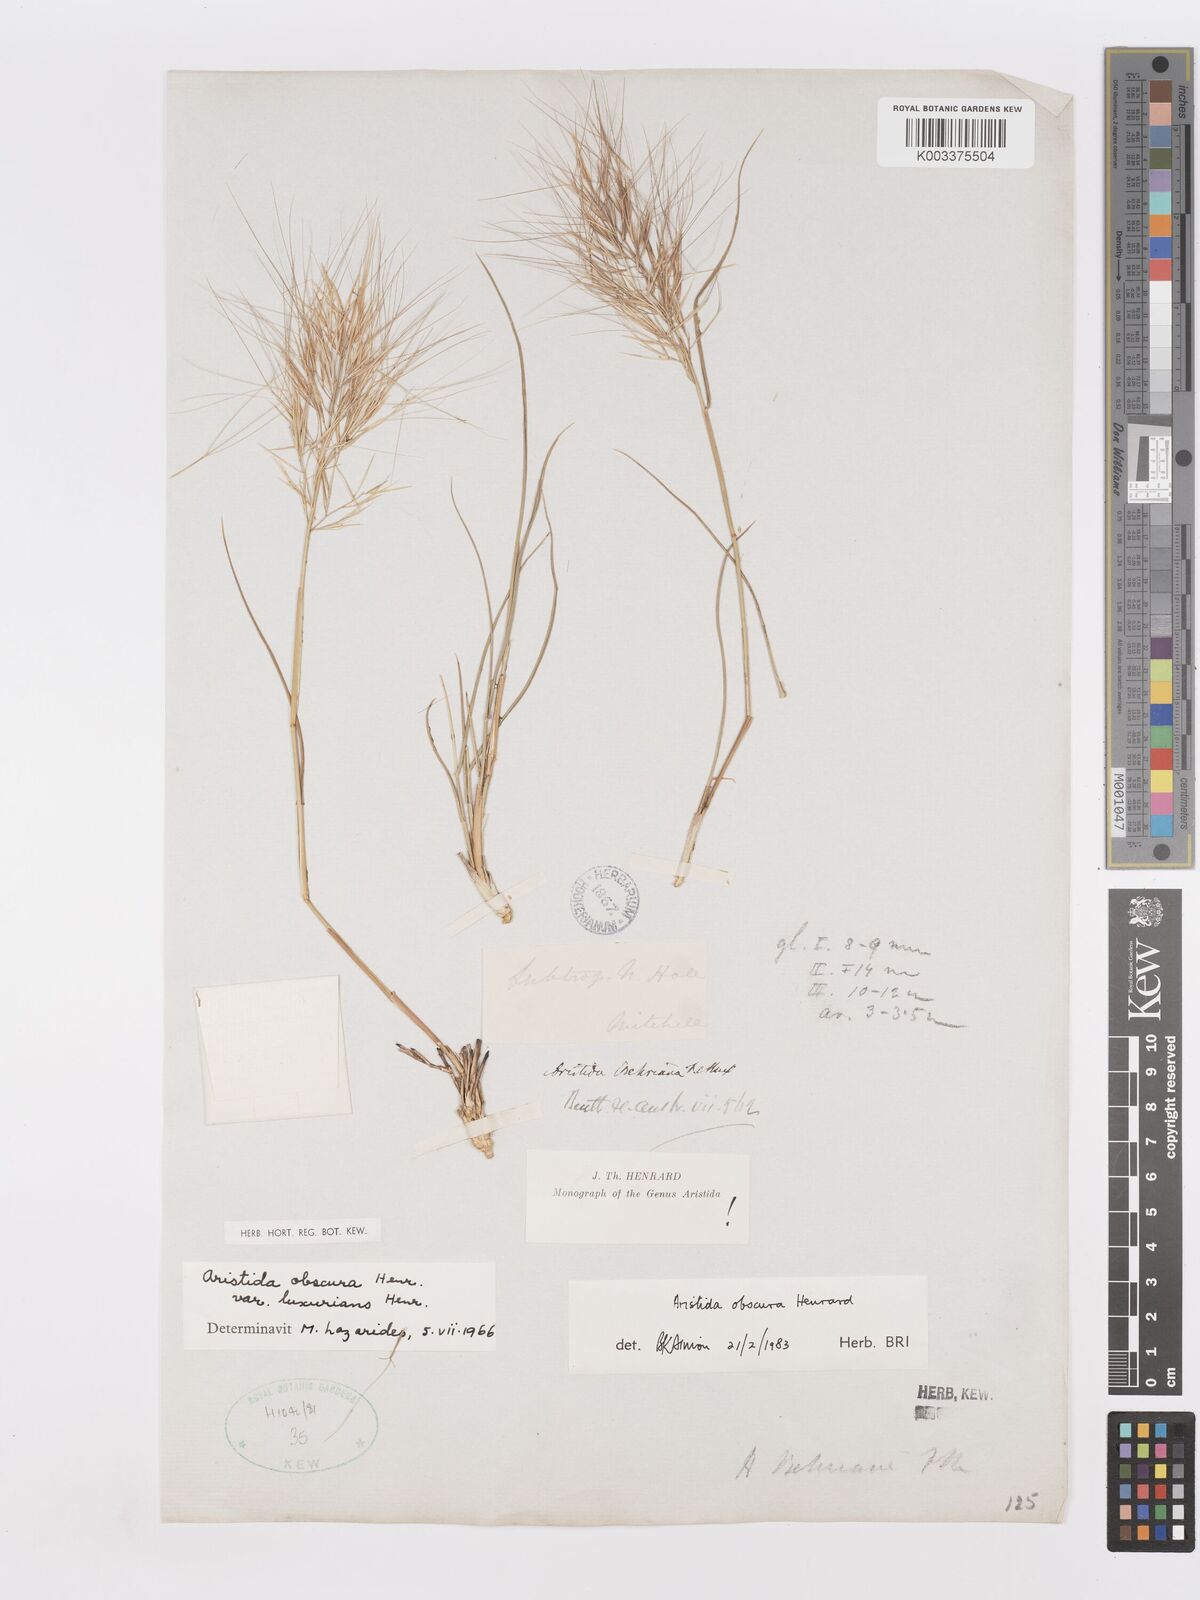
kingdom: Plantae
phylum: Tracheophyta
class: Liliopsida
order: Poales
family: Poaceae
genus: Aristida
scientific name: Aristida obscura
